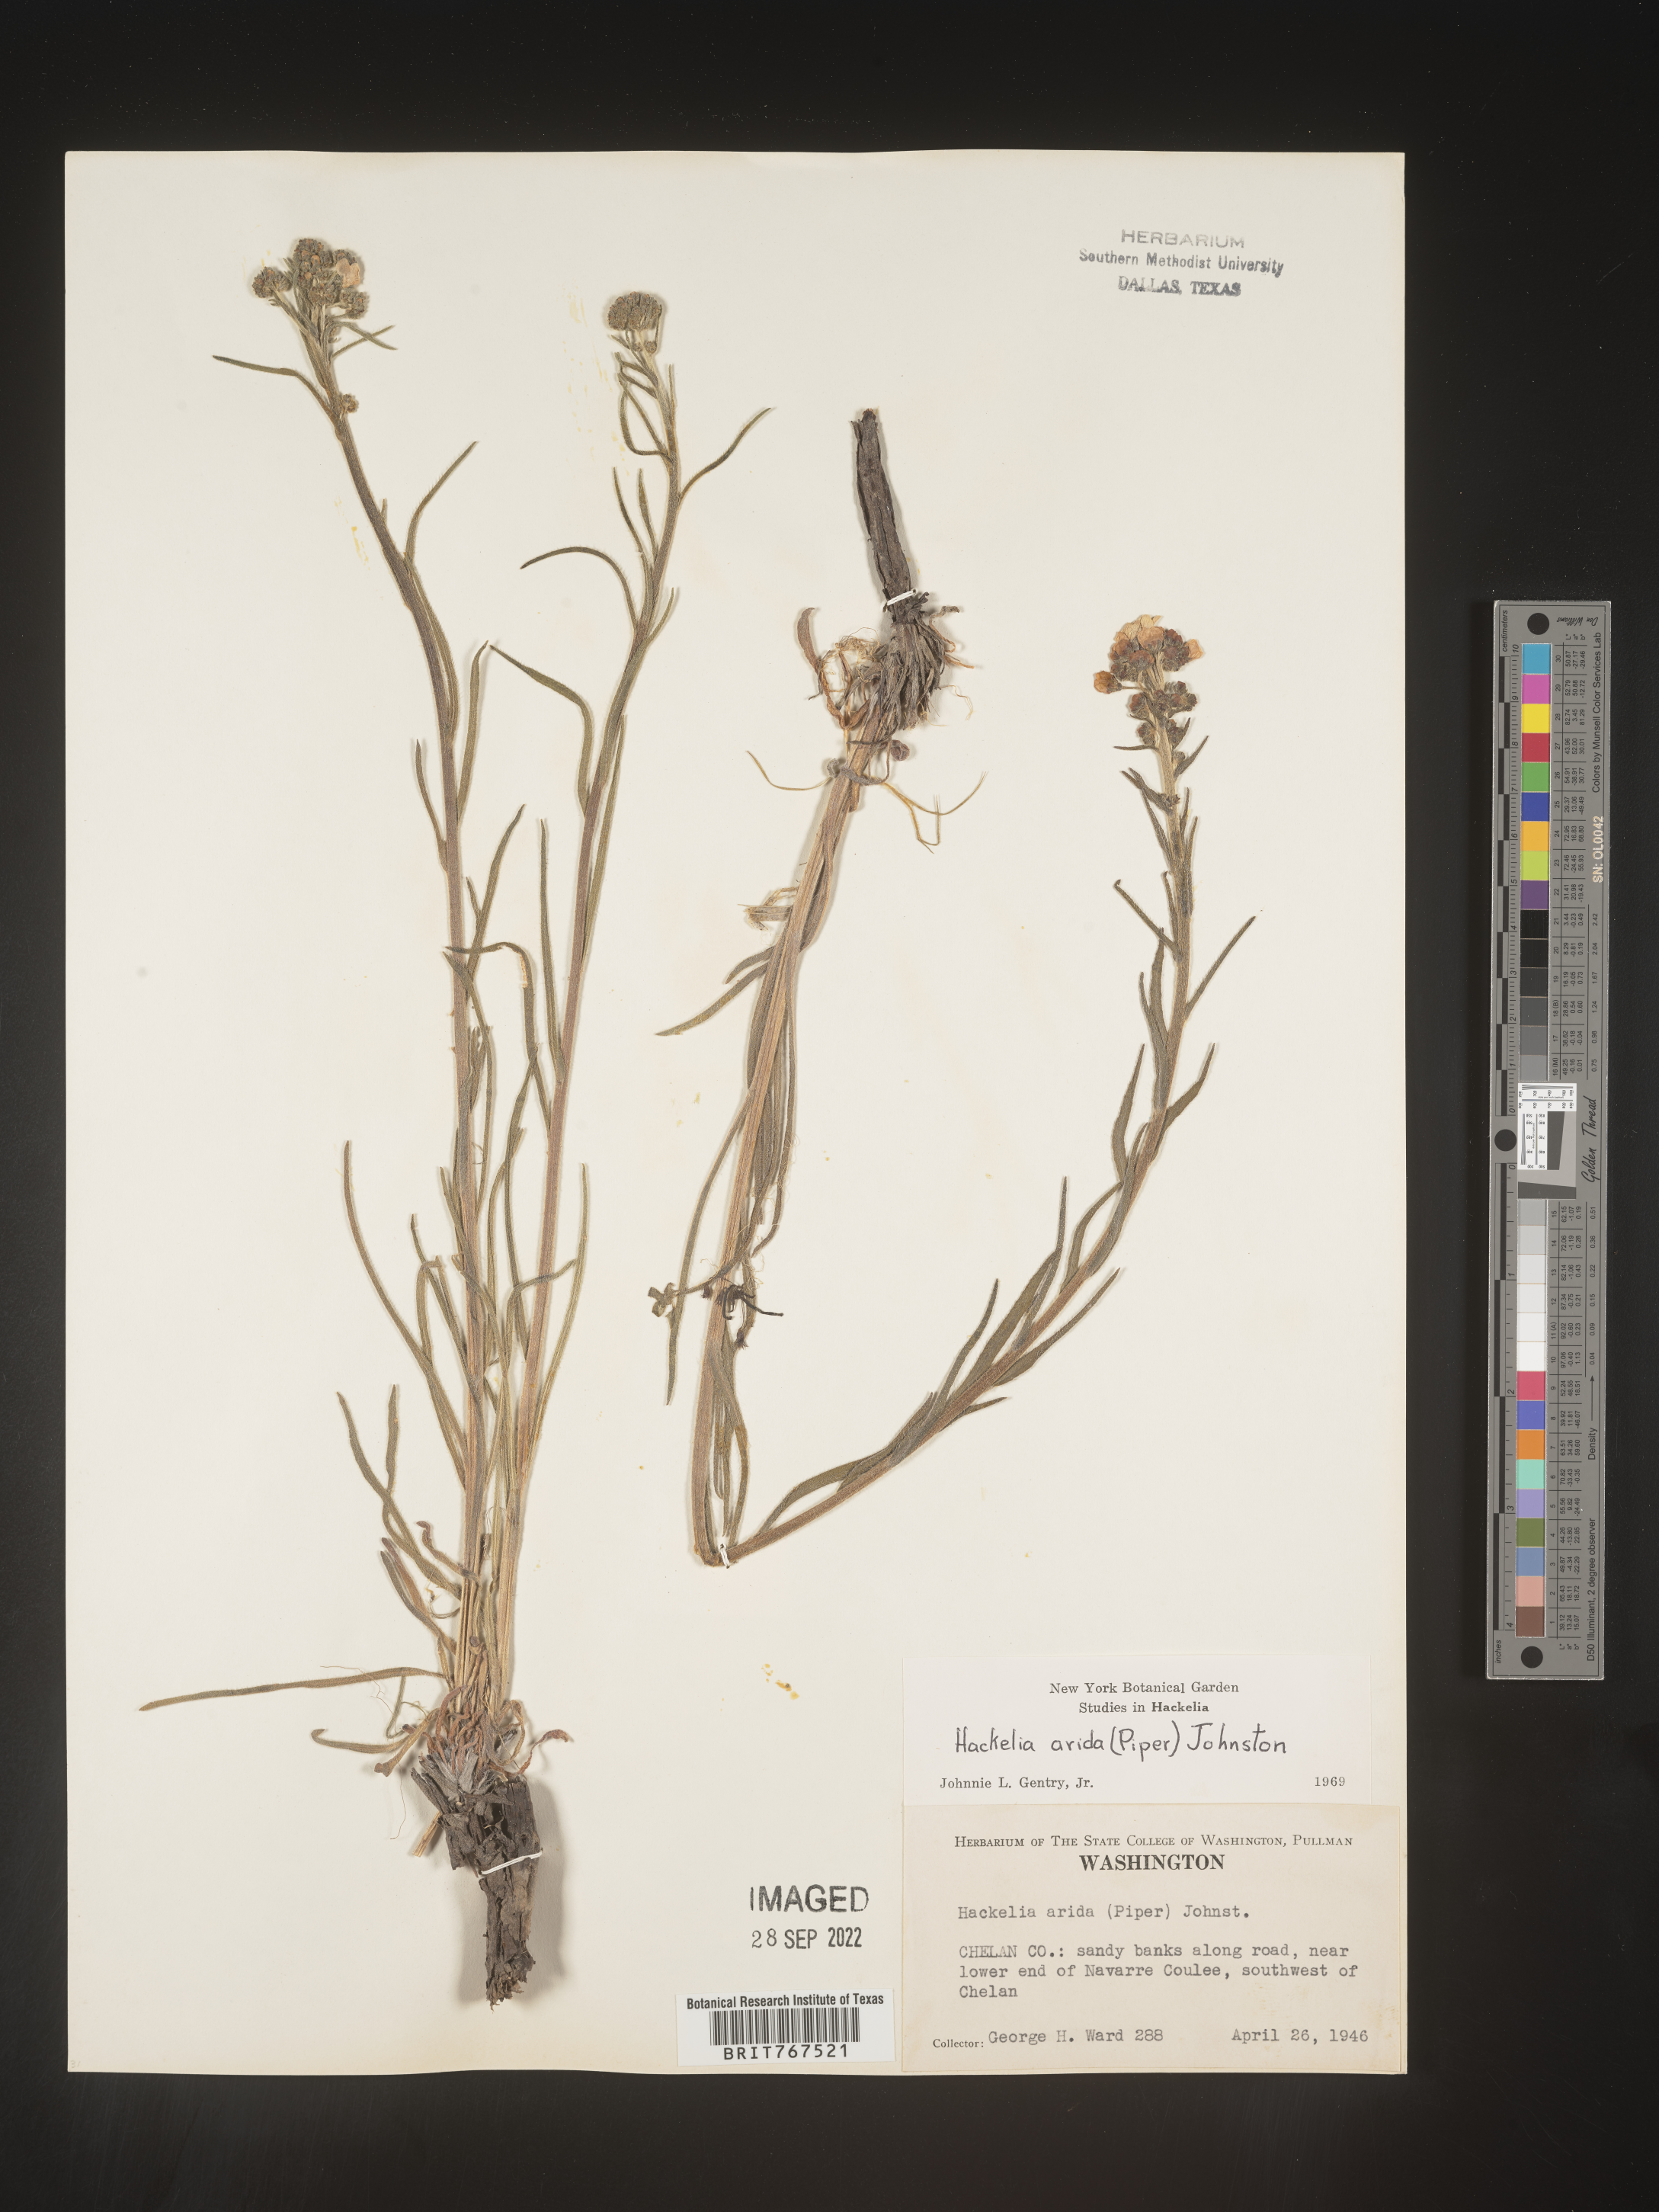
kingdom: Plantae
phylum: Tracheophyta
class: Magnoliopsida
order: Boraginales
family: Boraginaceae
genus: Hackelia
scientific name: Hackelia
